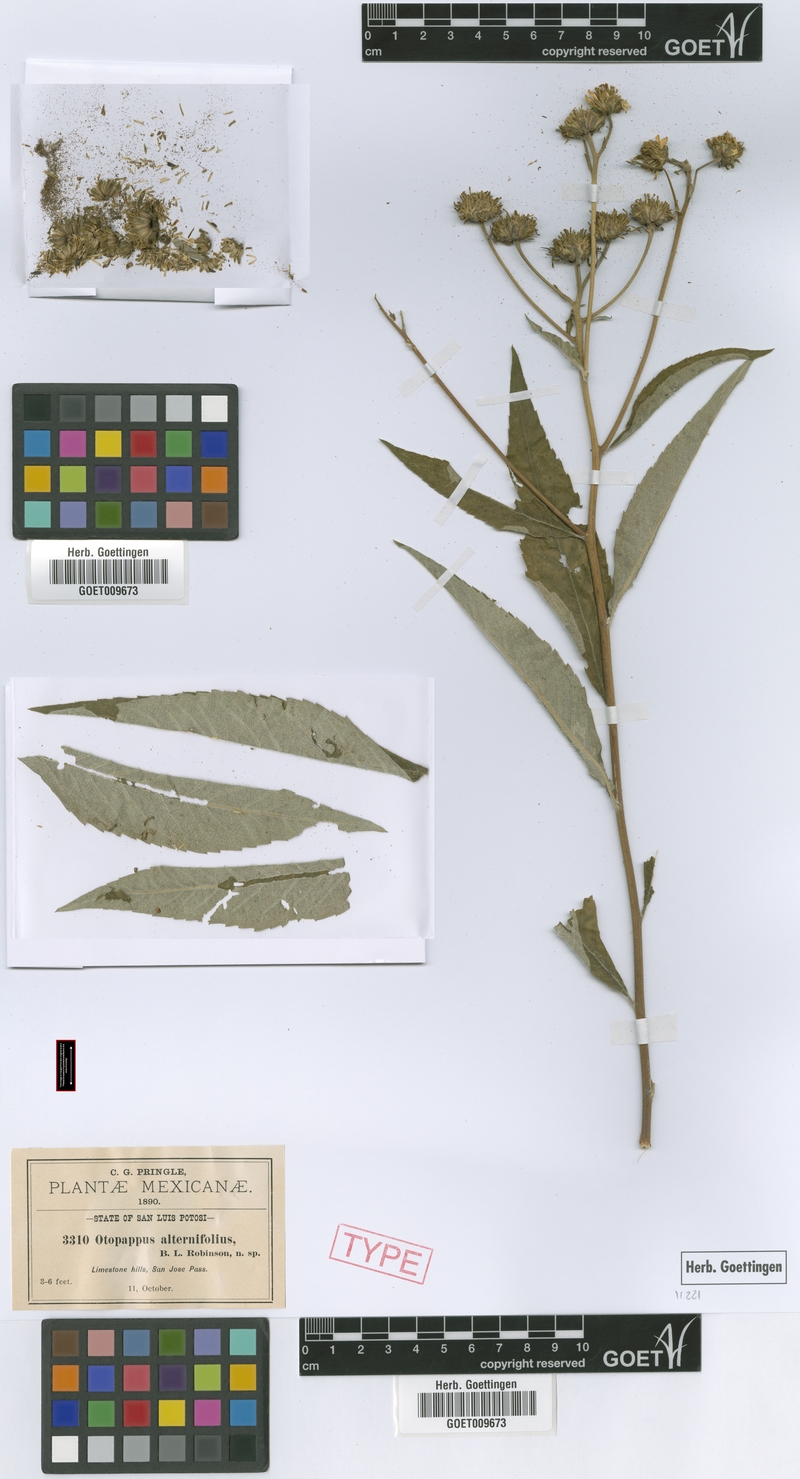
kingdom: Plantae
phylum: Tracheophyta
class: Magnoliopsida
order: Asterales
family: Asteraceae
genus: Verbesina
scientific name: Verbesina robinsonii
